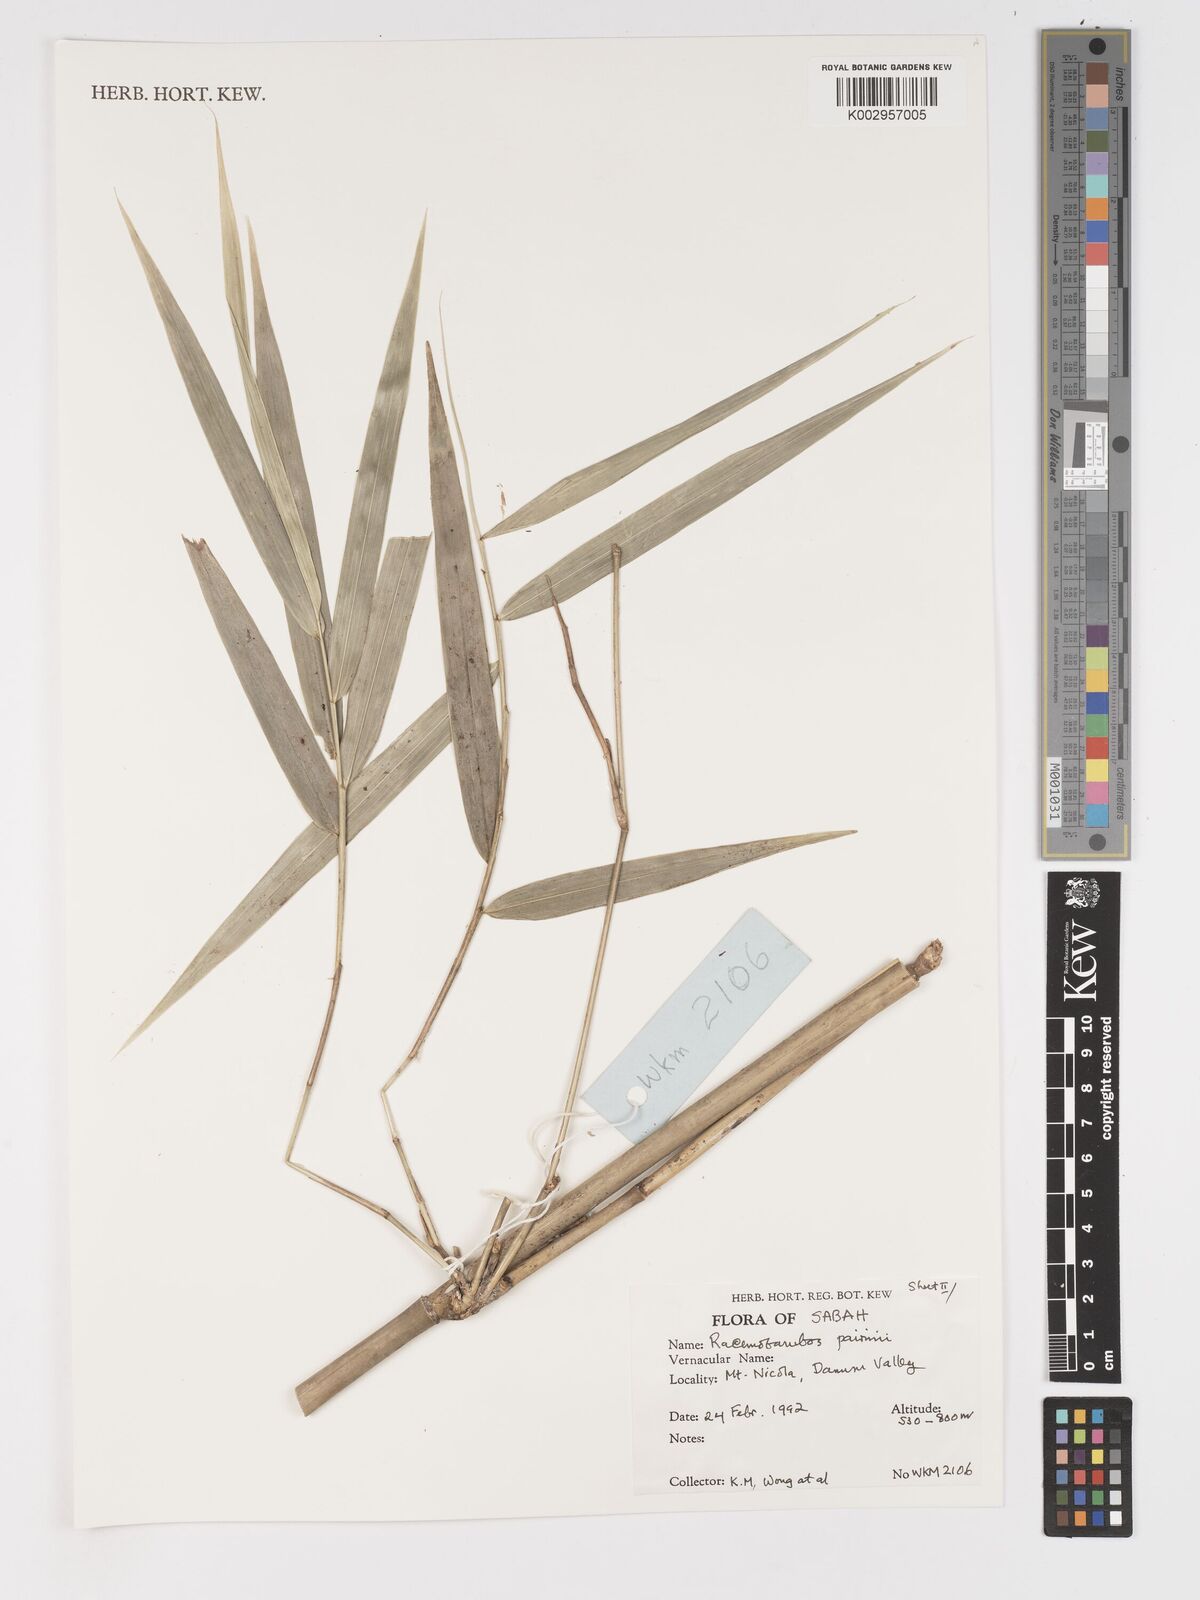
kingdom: Plantae
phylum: Tracheophyta
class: Liliopsida
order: Poales
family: Poaceae
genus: Racemobambos
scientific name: Racemobambos pairinii
